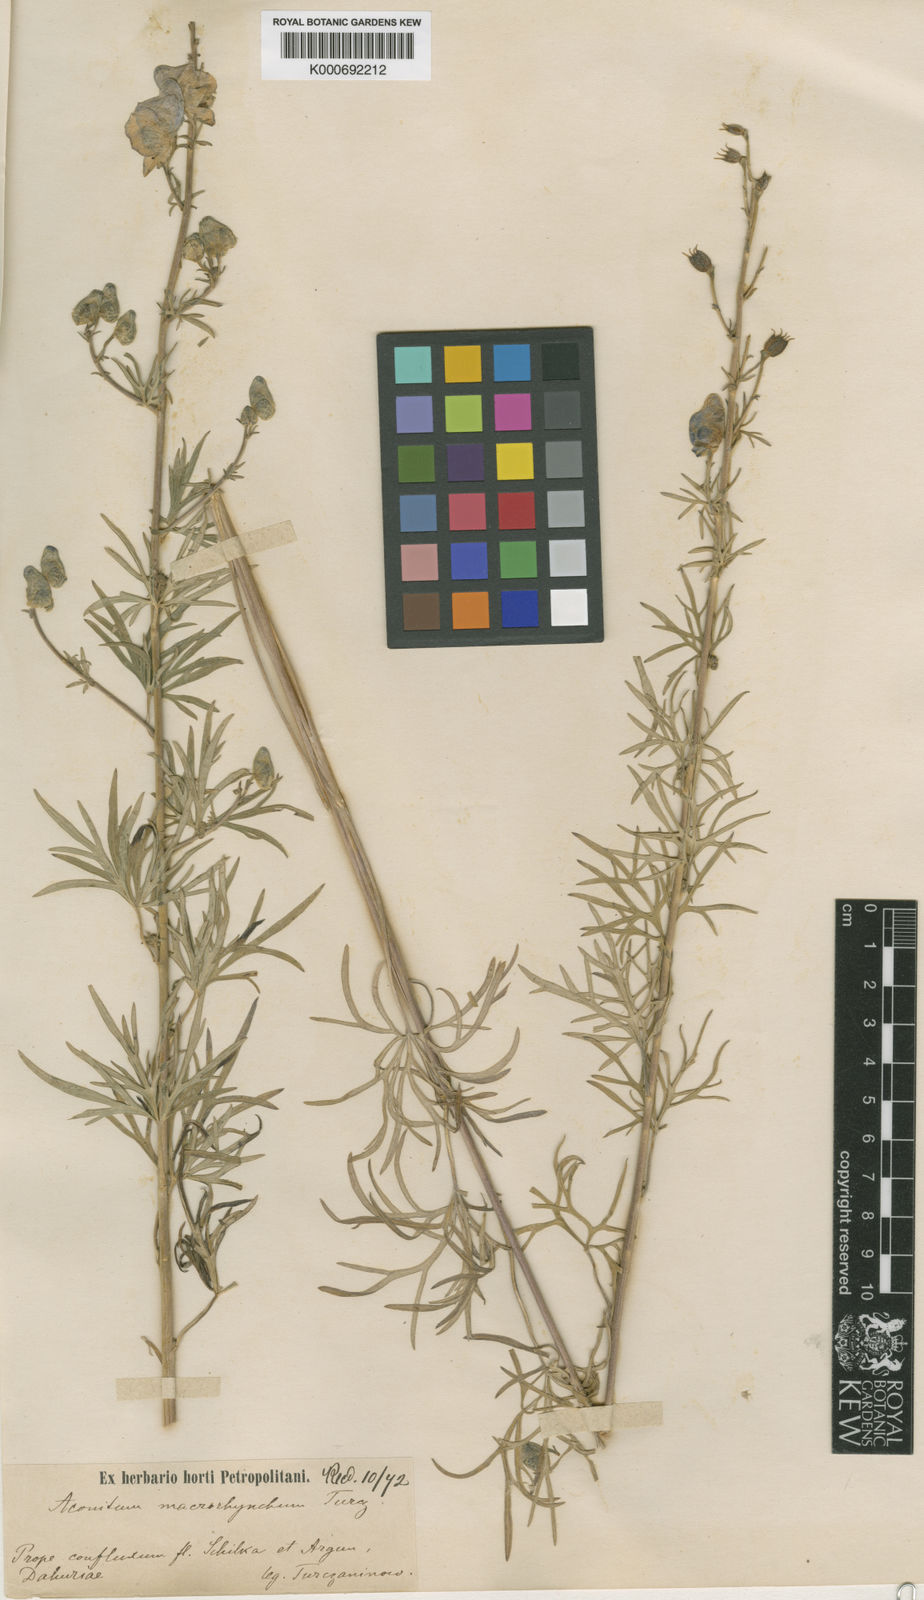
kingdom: Plantae
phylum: Tracheophyta
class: Magnoliopsida
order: Ranunculales
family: Ranunculaceae
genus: Aconitum
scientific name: Aconitum macrorhynchum
